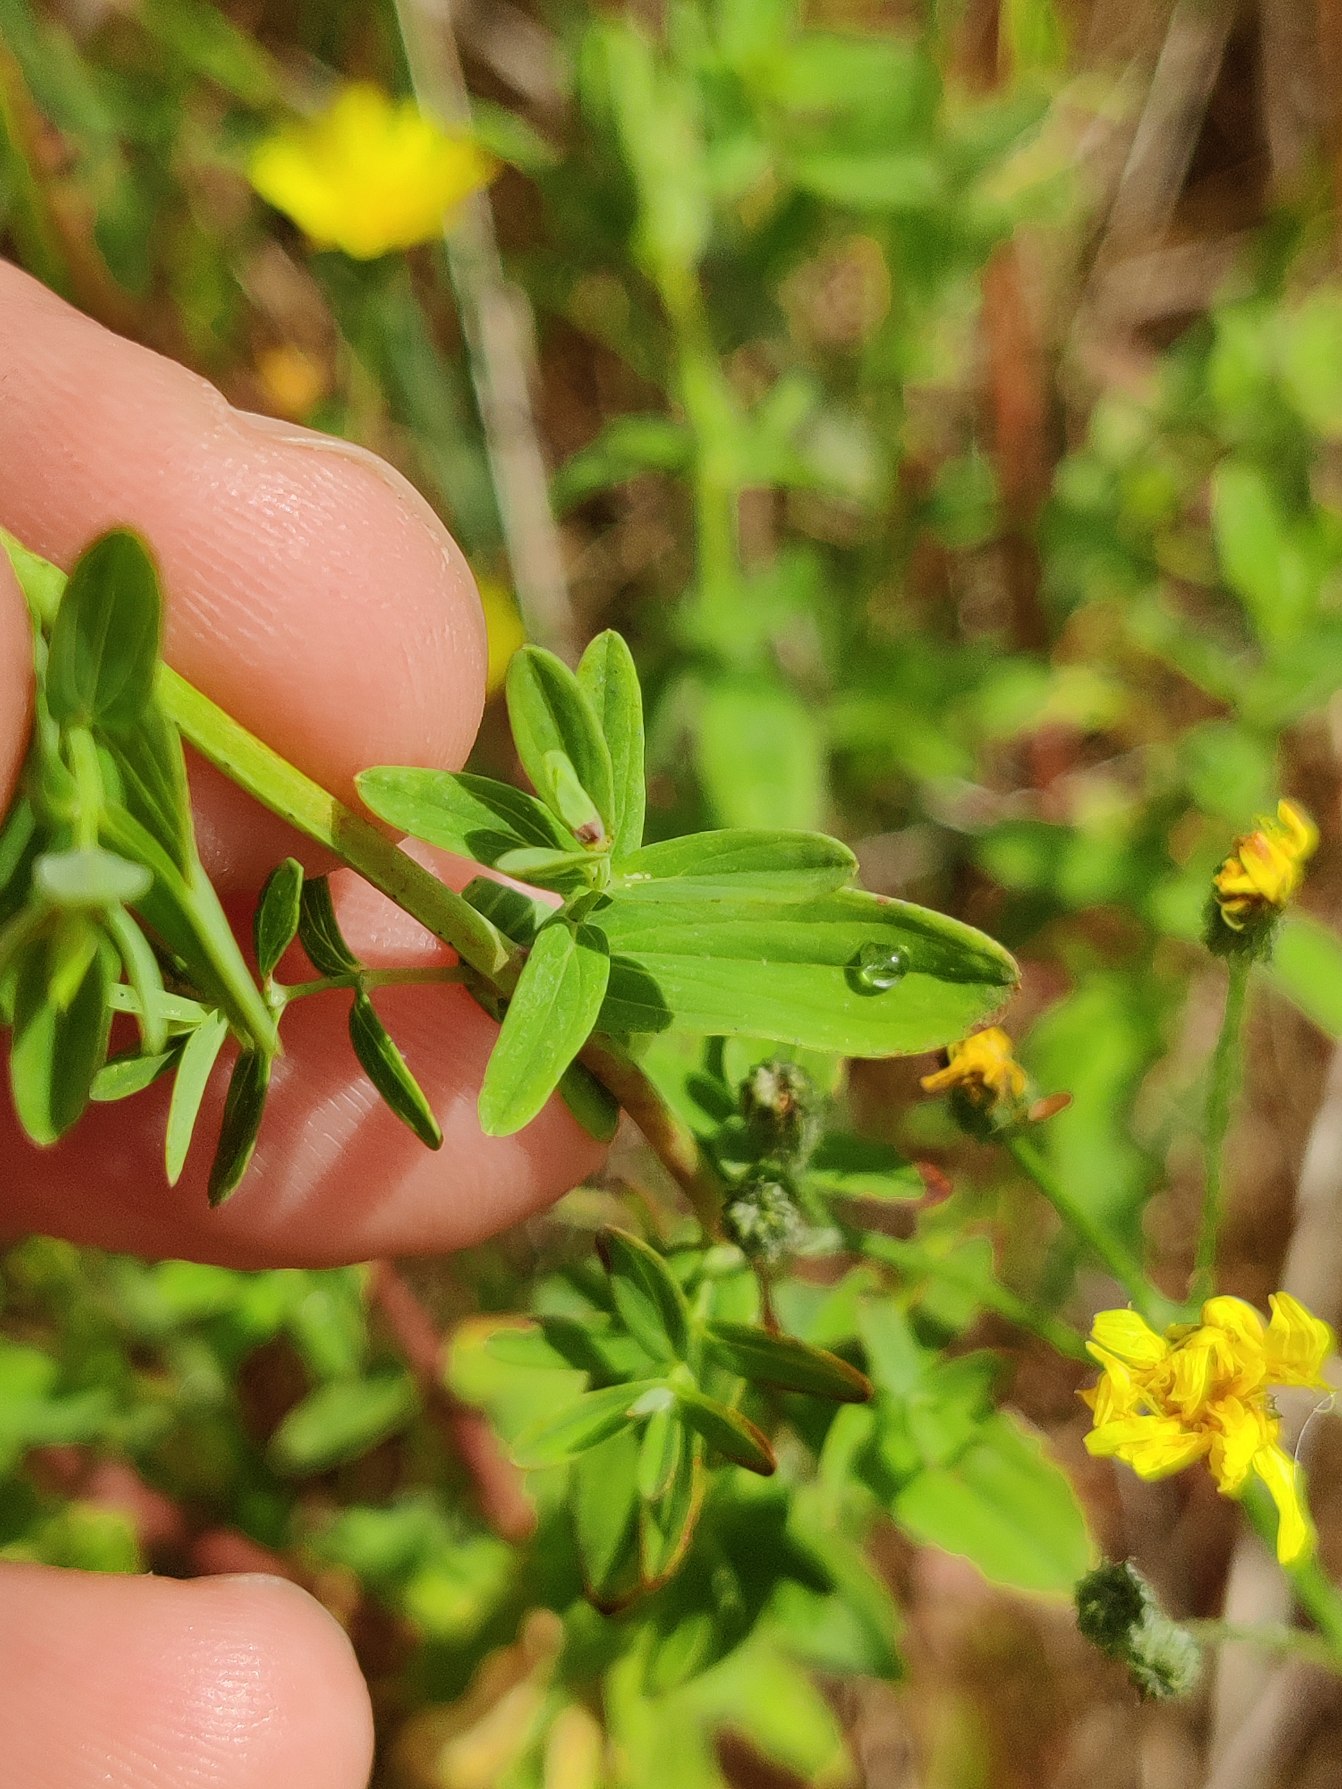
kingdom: Plantae
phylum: Tracheophyta
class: Magnoliopsida
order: Malpighiales
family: Hypericaceae
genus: Hypericum
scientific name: Hypericum perforatum
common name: Prikbladet perikon
